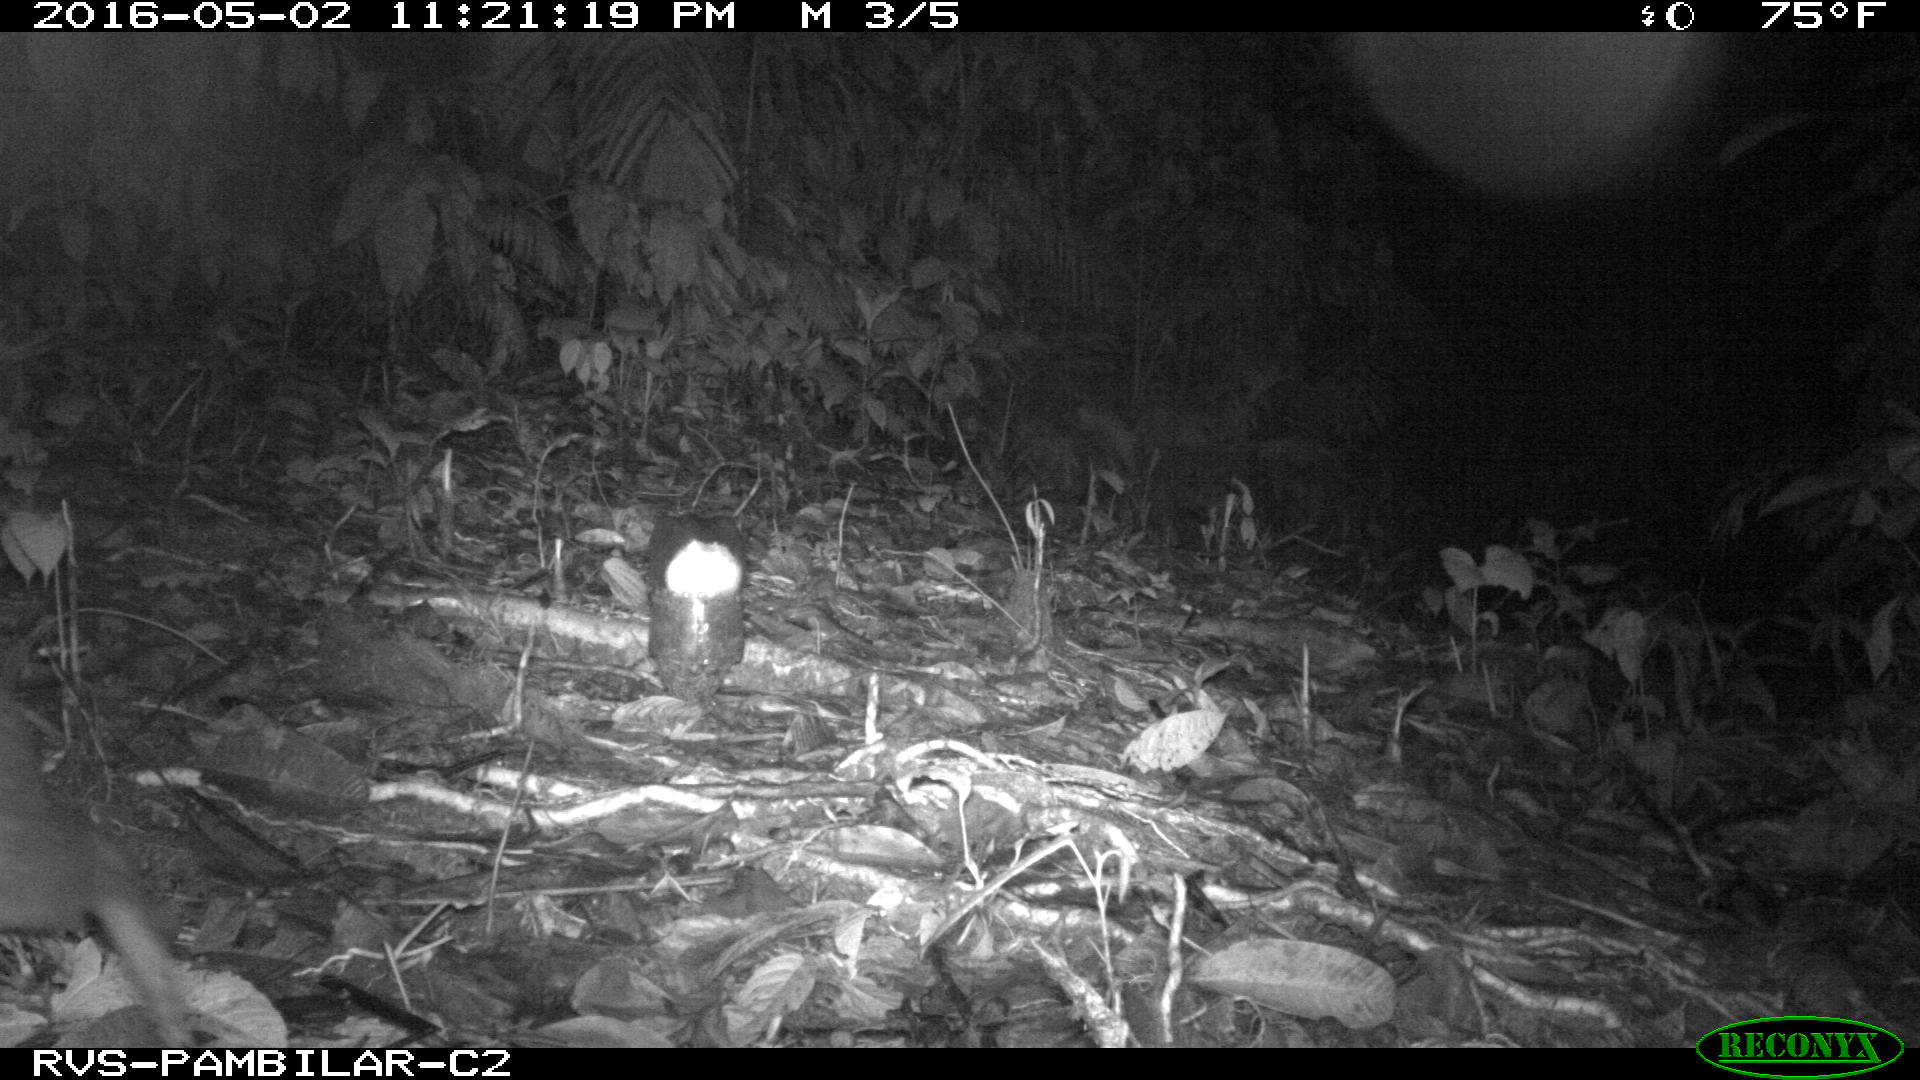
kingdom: Animalia
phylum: Chordata
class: Mammalia
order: Rodentia
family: Cuniculidae
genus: Cuniculus
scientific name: Cuniculus paca
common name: Lowland paca
